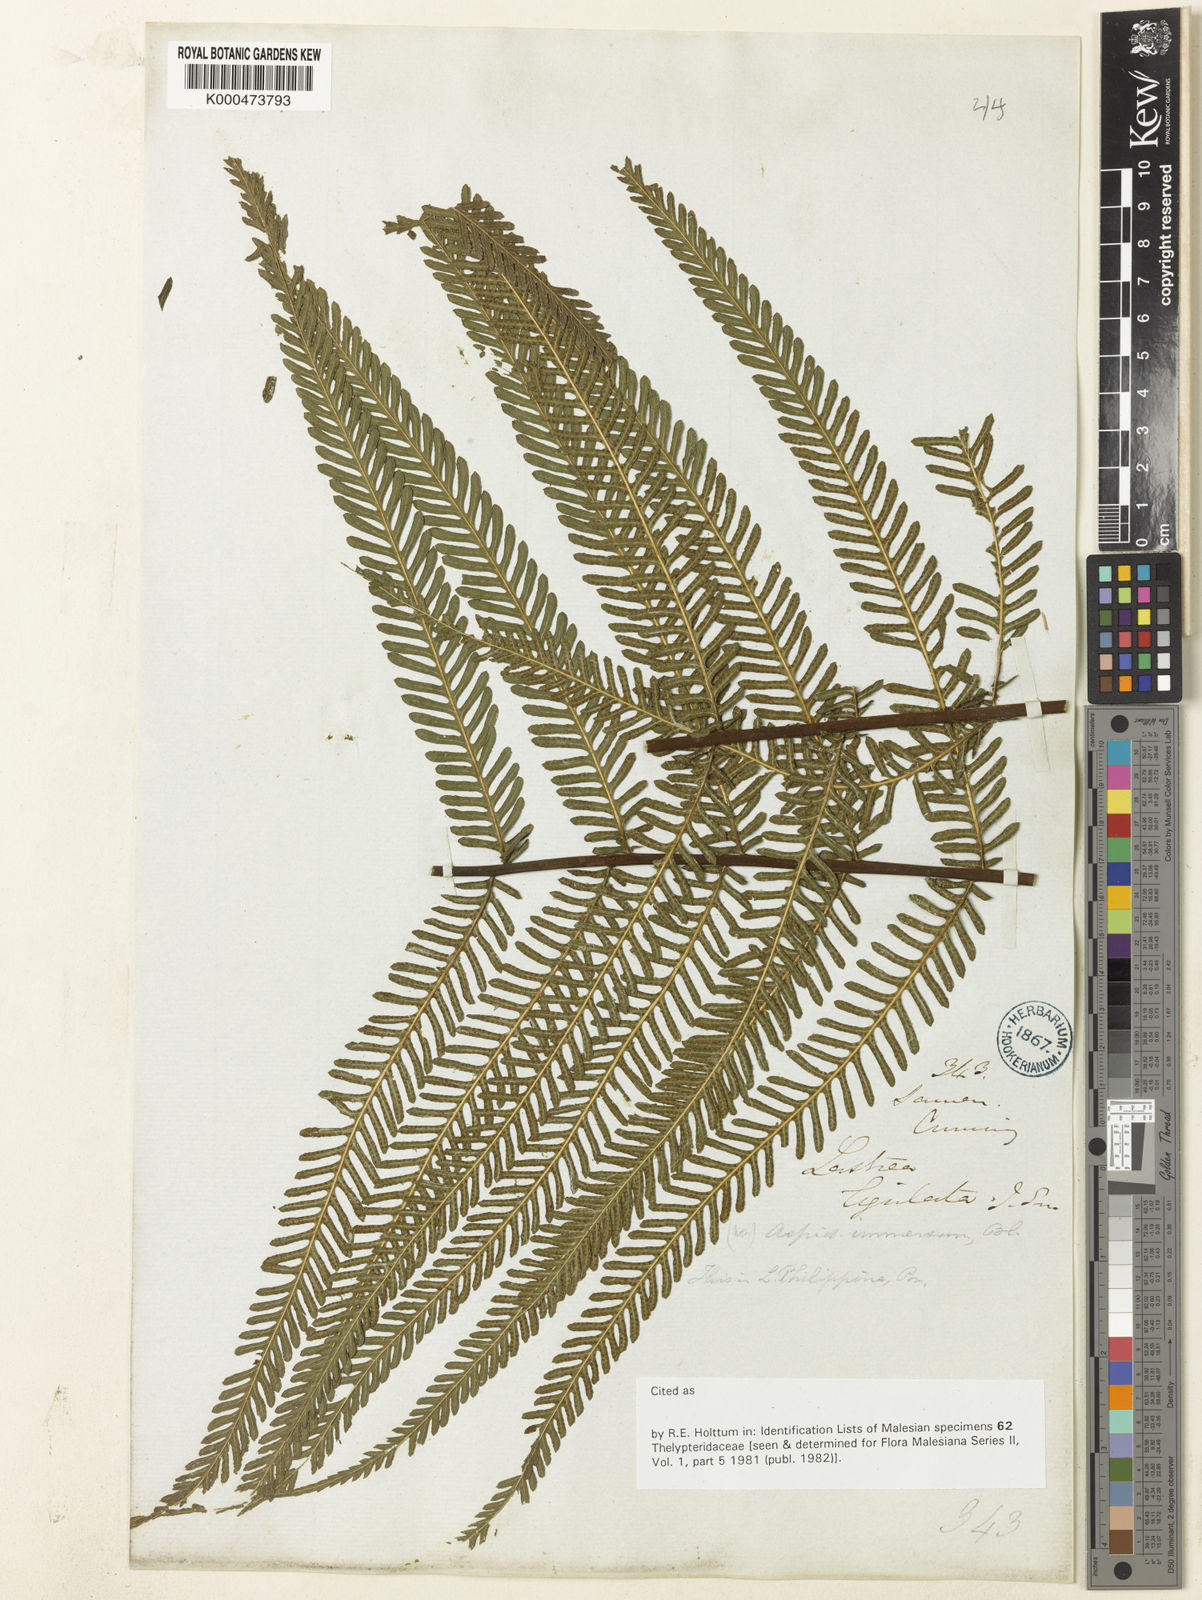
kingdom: Plantae
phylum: Tracheophyta
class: Polypodiopsida
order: Polypodiales
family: Thelypteridaceae
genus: Plesioneuron
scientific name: Plesioneuron ligulatum
